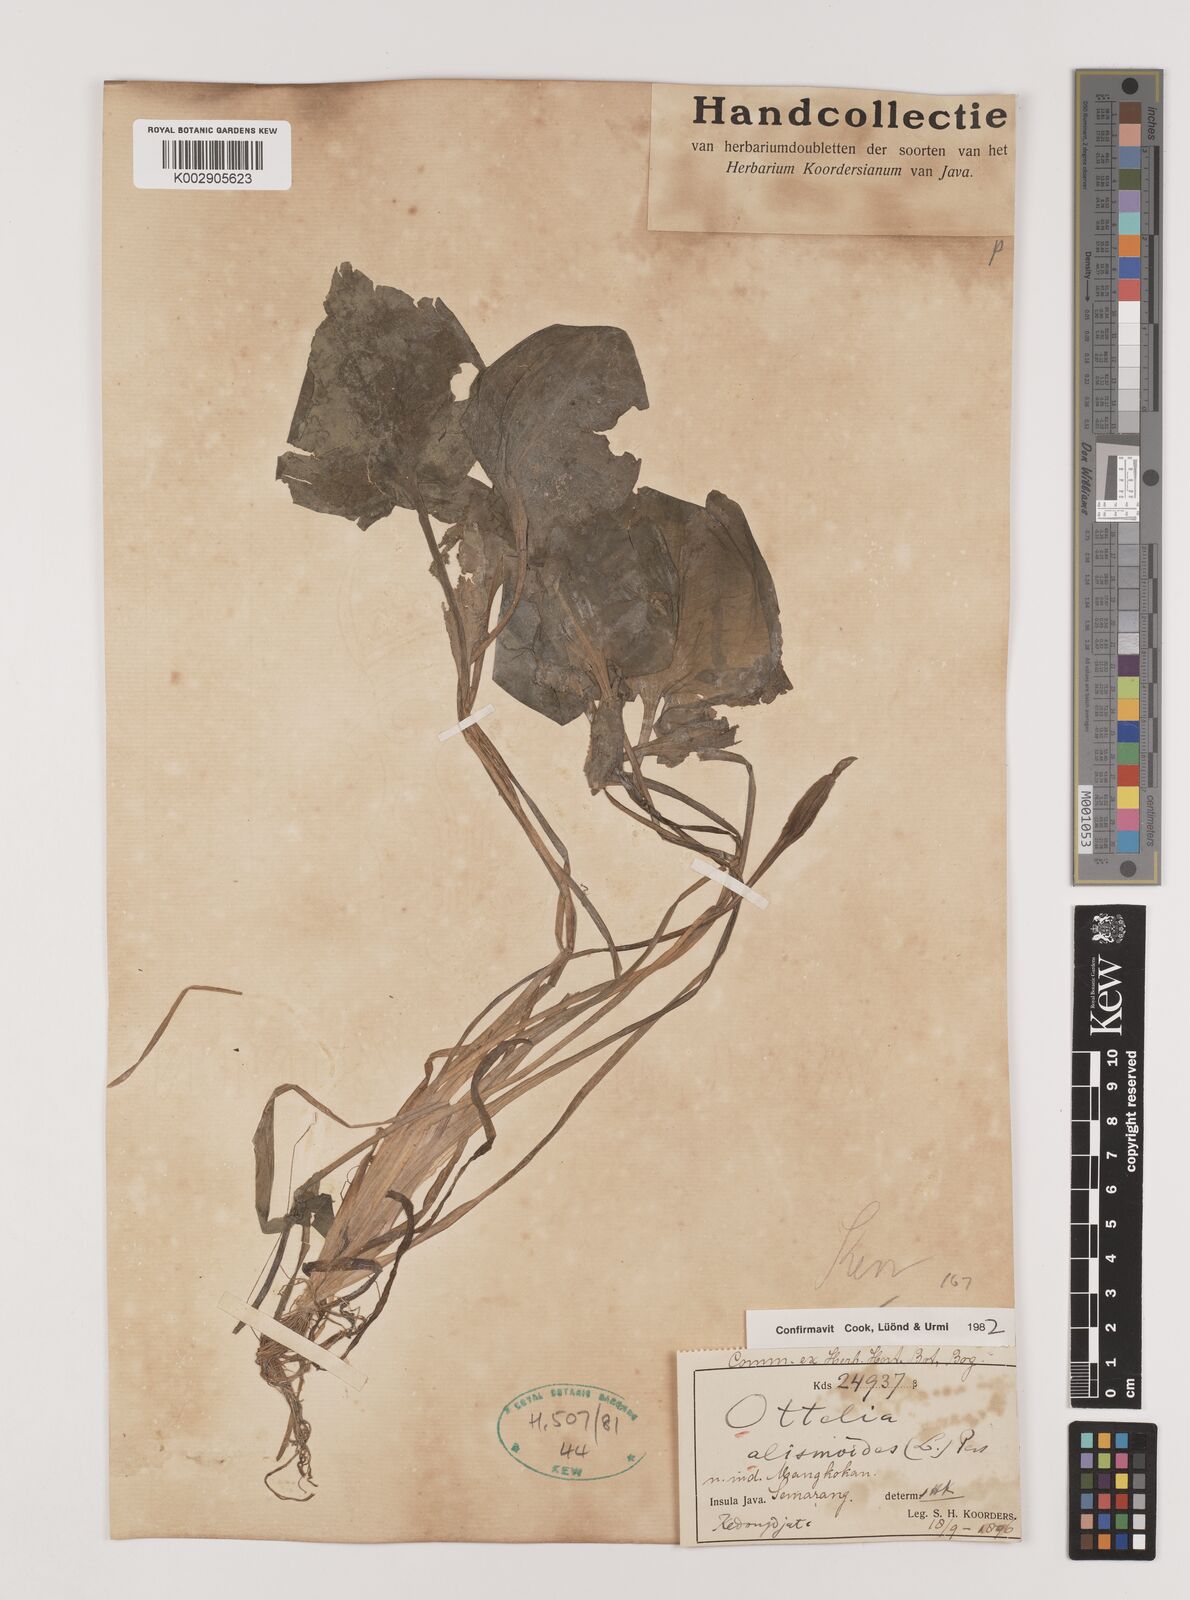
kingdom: Plantae
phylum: Tracheophyta
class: Liliopsida
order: Alismatales
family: Hydrocharitaceae
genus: Ottelia
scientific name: Ottelia alismoides
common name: Duck-lettuce
